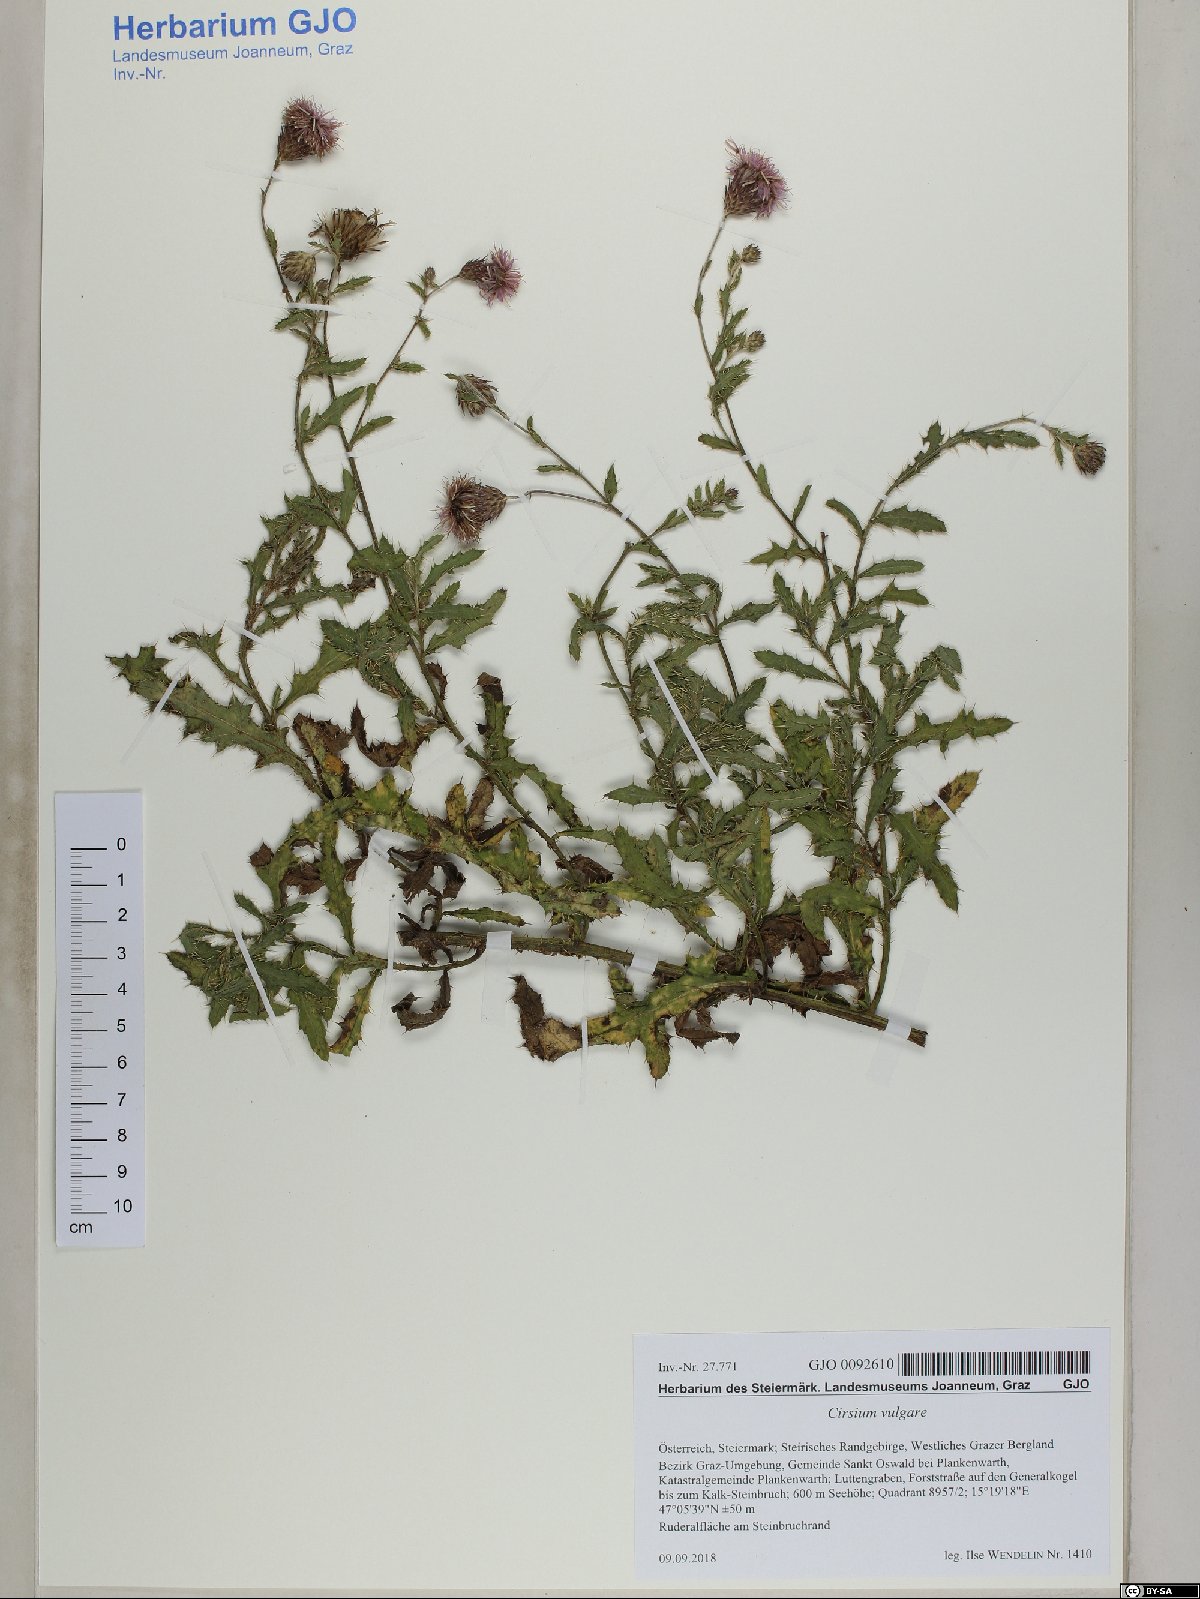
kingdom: Plantae
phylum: Tracheophyta
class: Magnoliopsida
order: Asterales
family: Asteraceae
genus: Cirsium
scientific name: Cirsium arvense
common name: Creeping thistle
